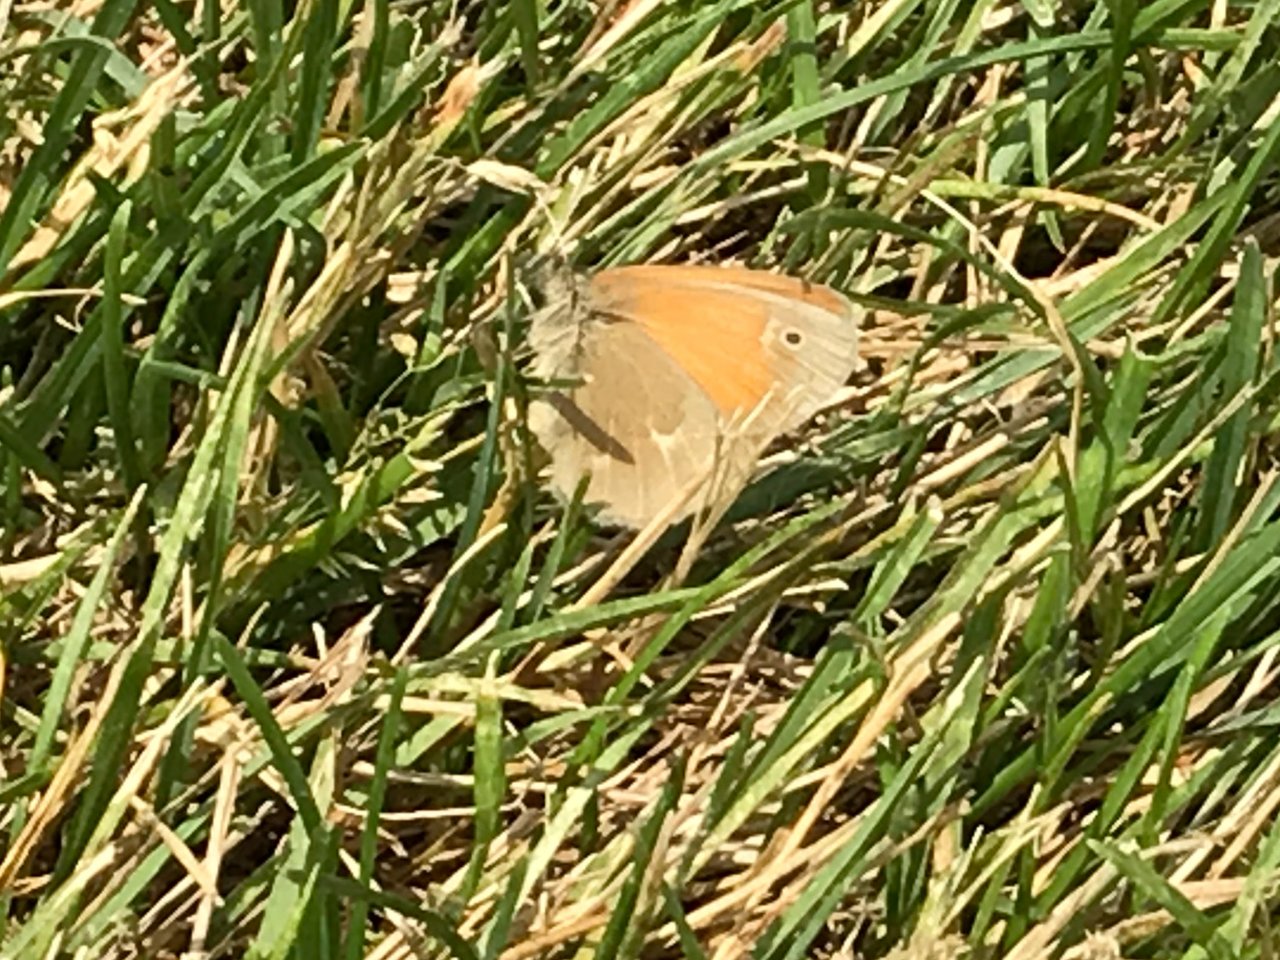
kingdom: Animalia
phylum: Arthropoda
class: Insecta
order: Lepidoptera
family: Nymphalidae
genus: Coenonympha
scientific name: Coenonympha tullia
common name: Large Heath
